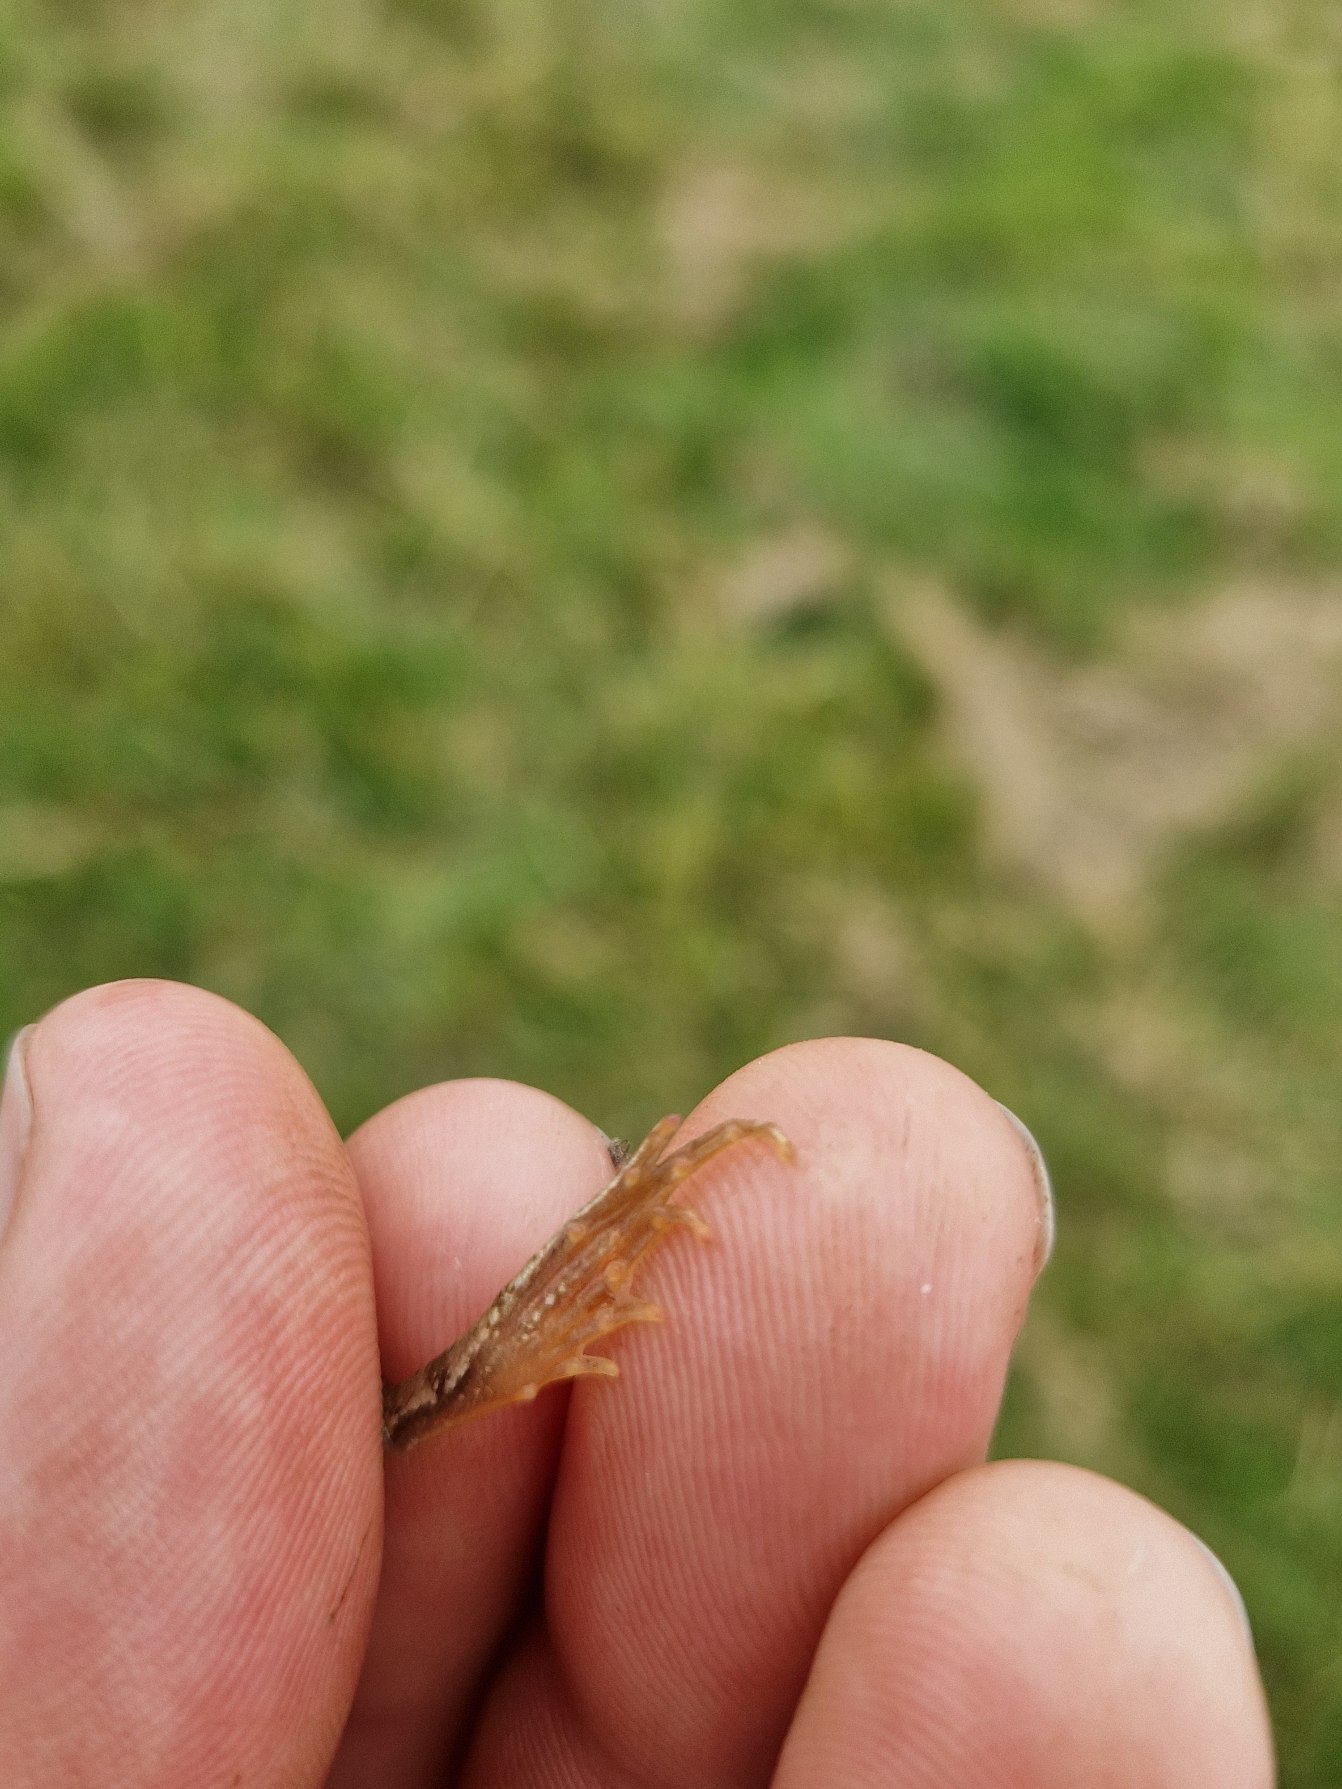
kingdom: Animalia
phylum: Chordata
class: Amphibia
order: Anura
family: Ranidae
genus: Rana
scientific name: Rana temporaria
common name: Butsnudet frø
